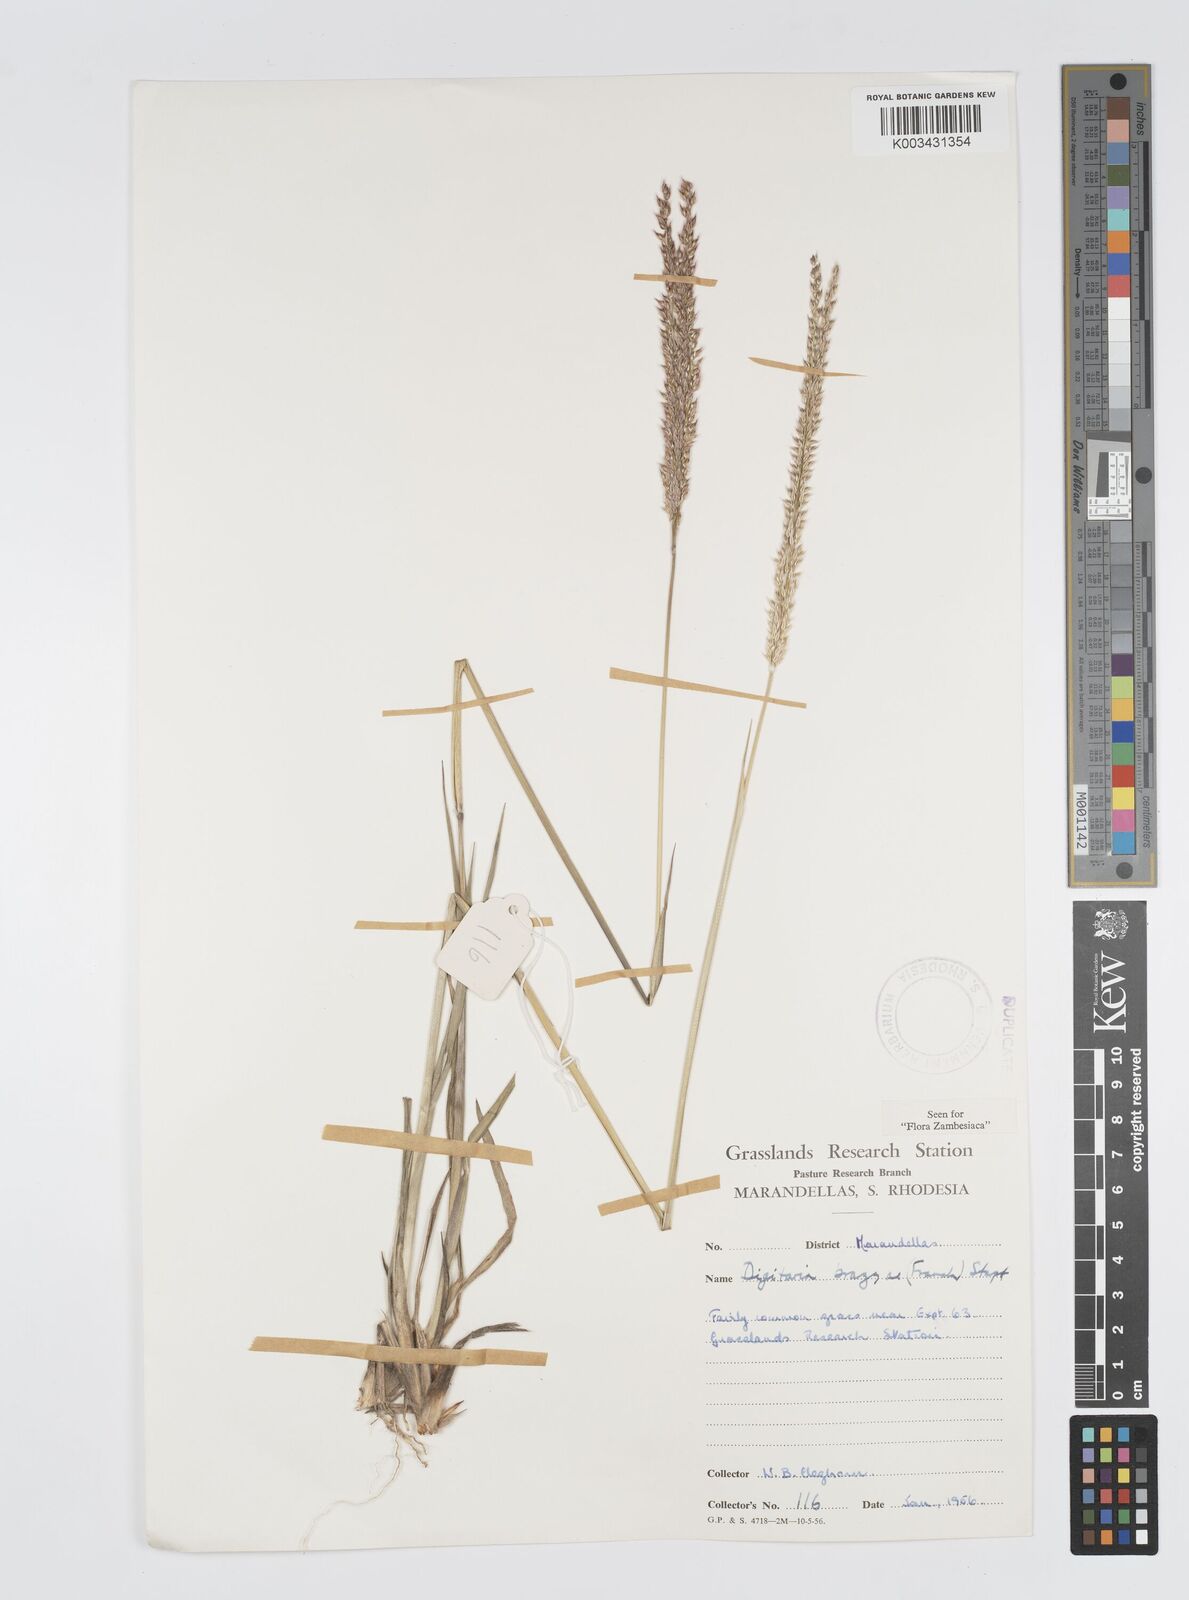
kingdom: Plantae
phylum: Tracheophyta
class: Liliopsida
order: Poales
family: Poaceae
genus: Digitaria
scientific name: Digitaria brazzae
